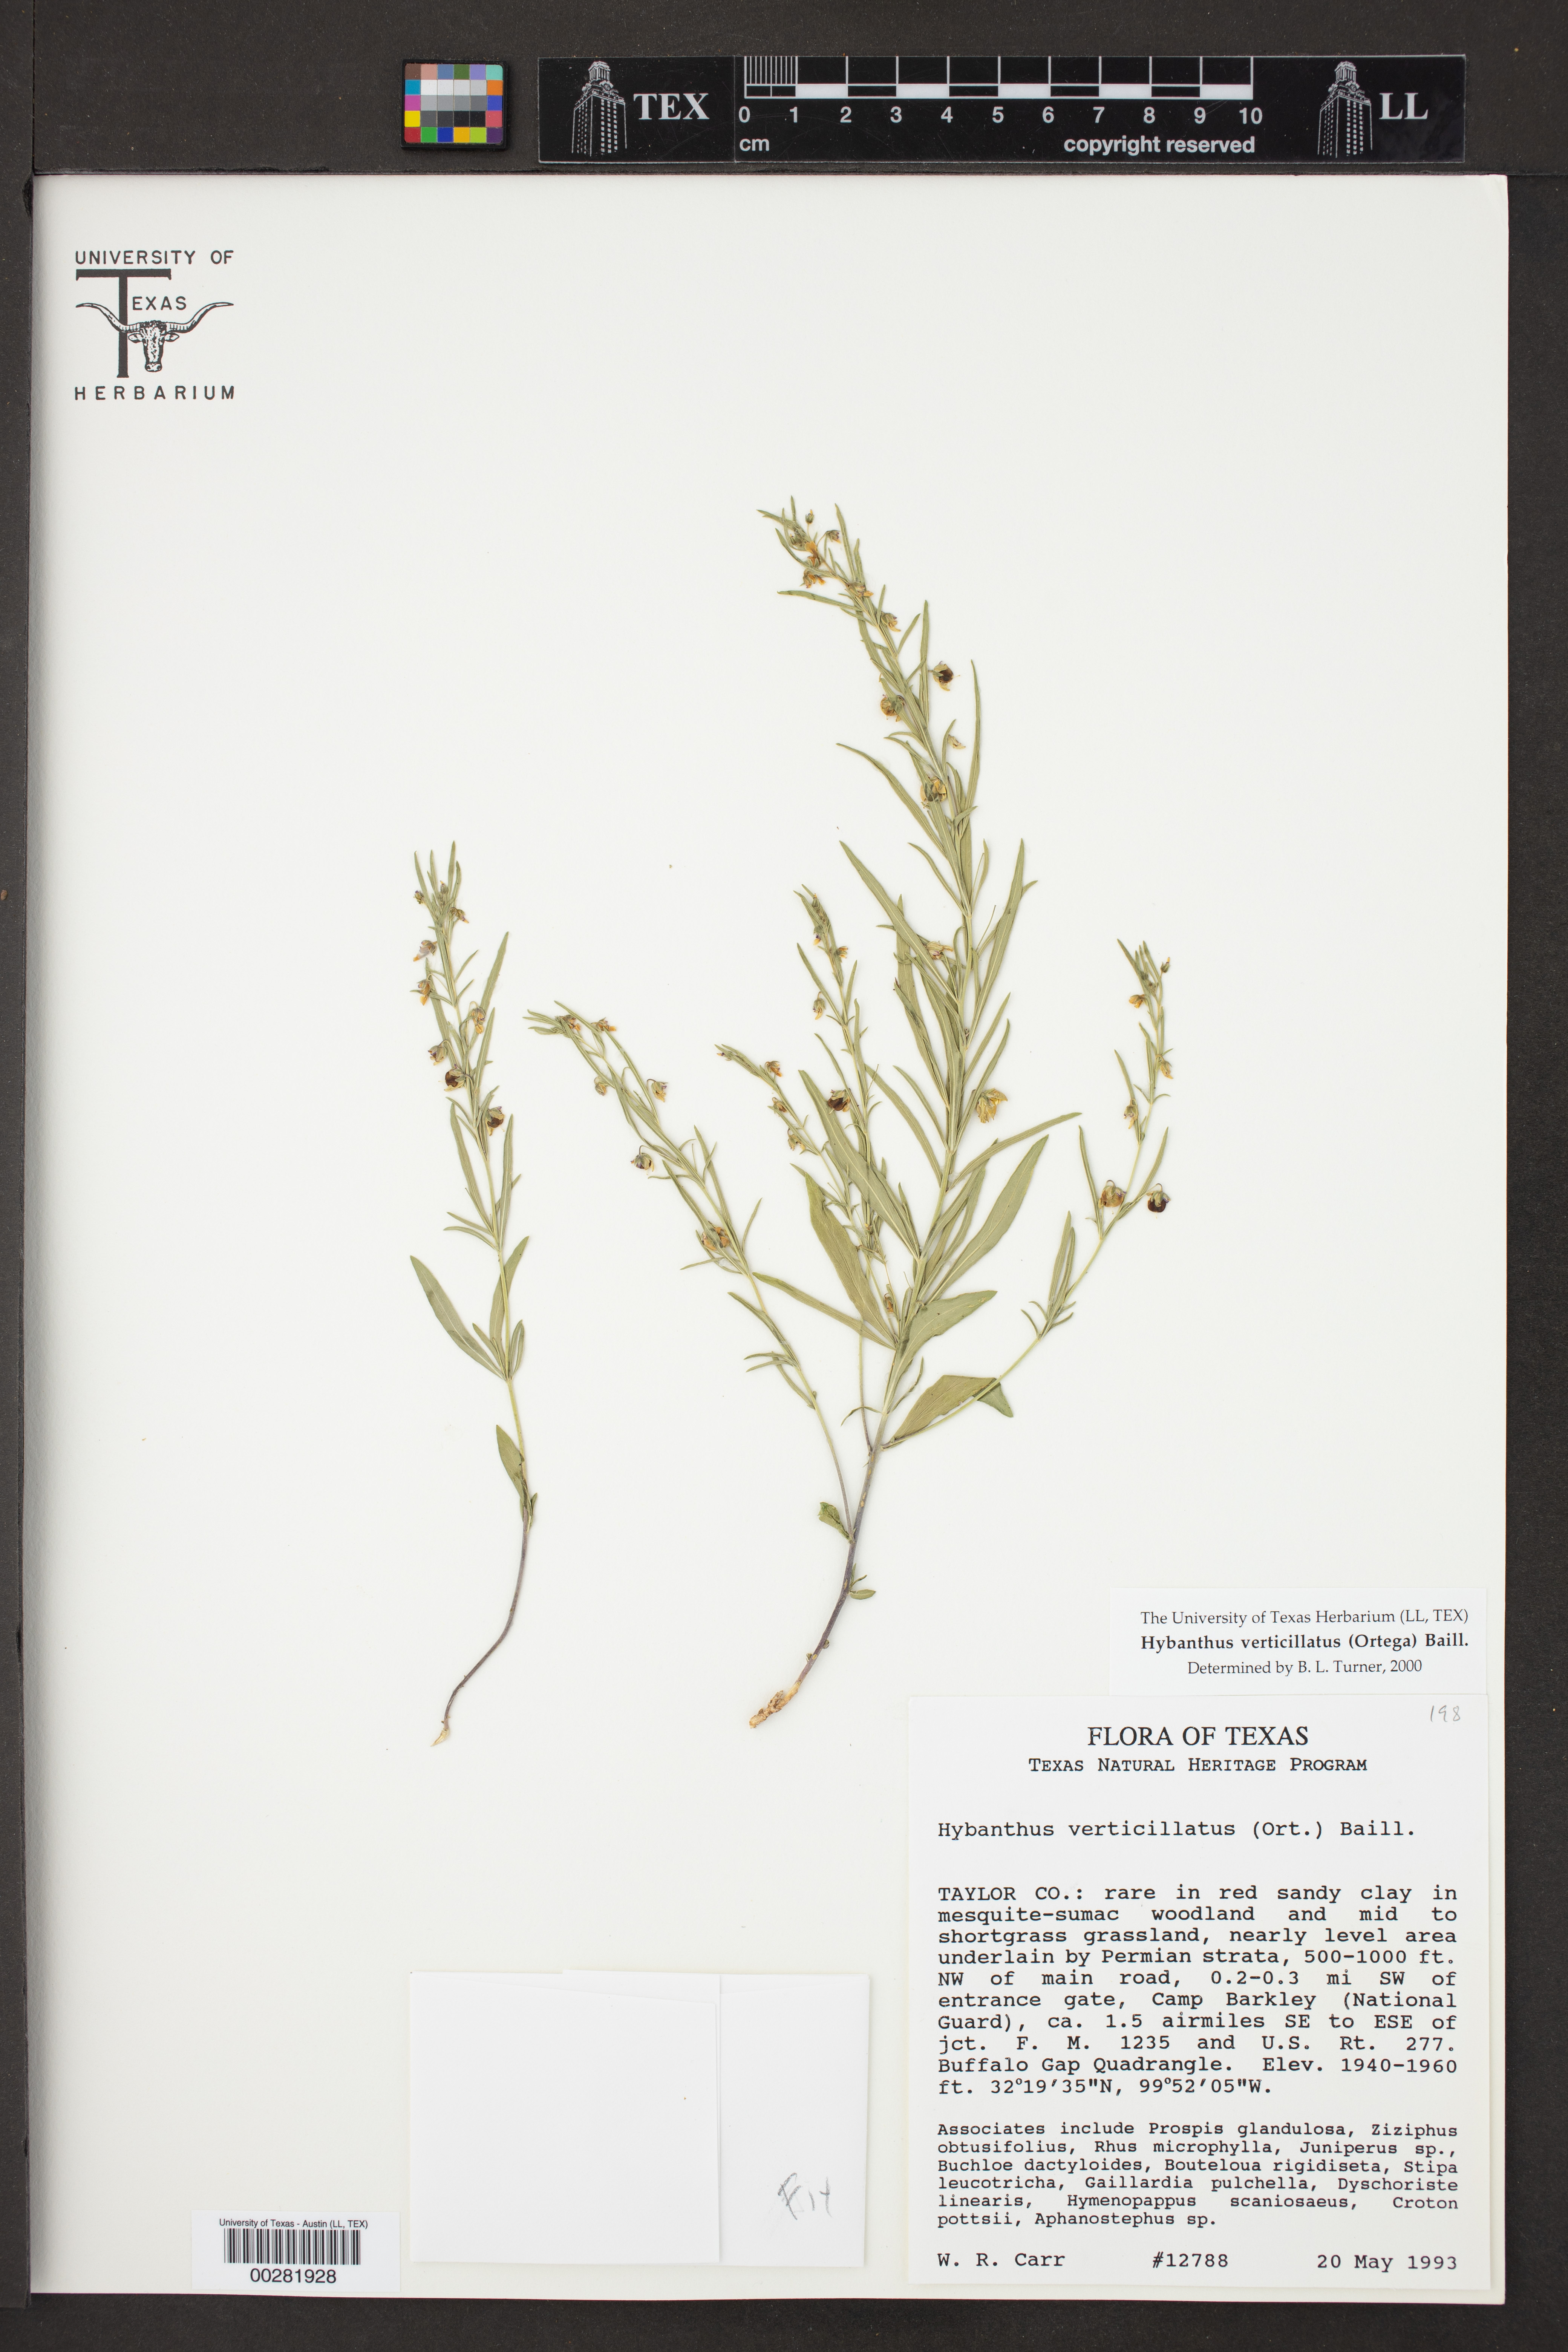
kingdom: Plantae
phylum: Tracheophyta
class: Magnoliopsida
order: Malpighiales
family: Violaceae
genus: Pombalia
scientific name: Pombalia verticillata
